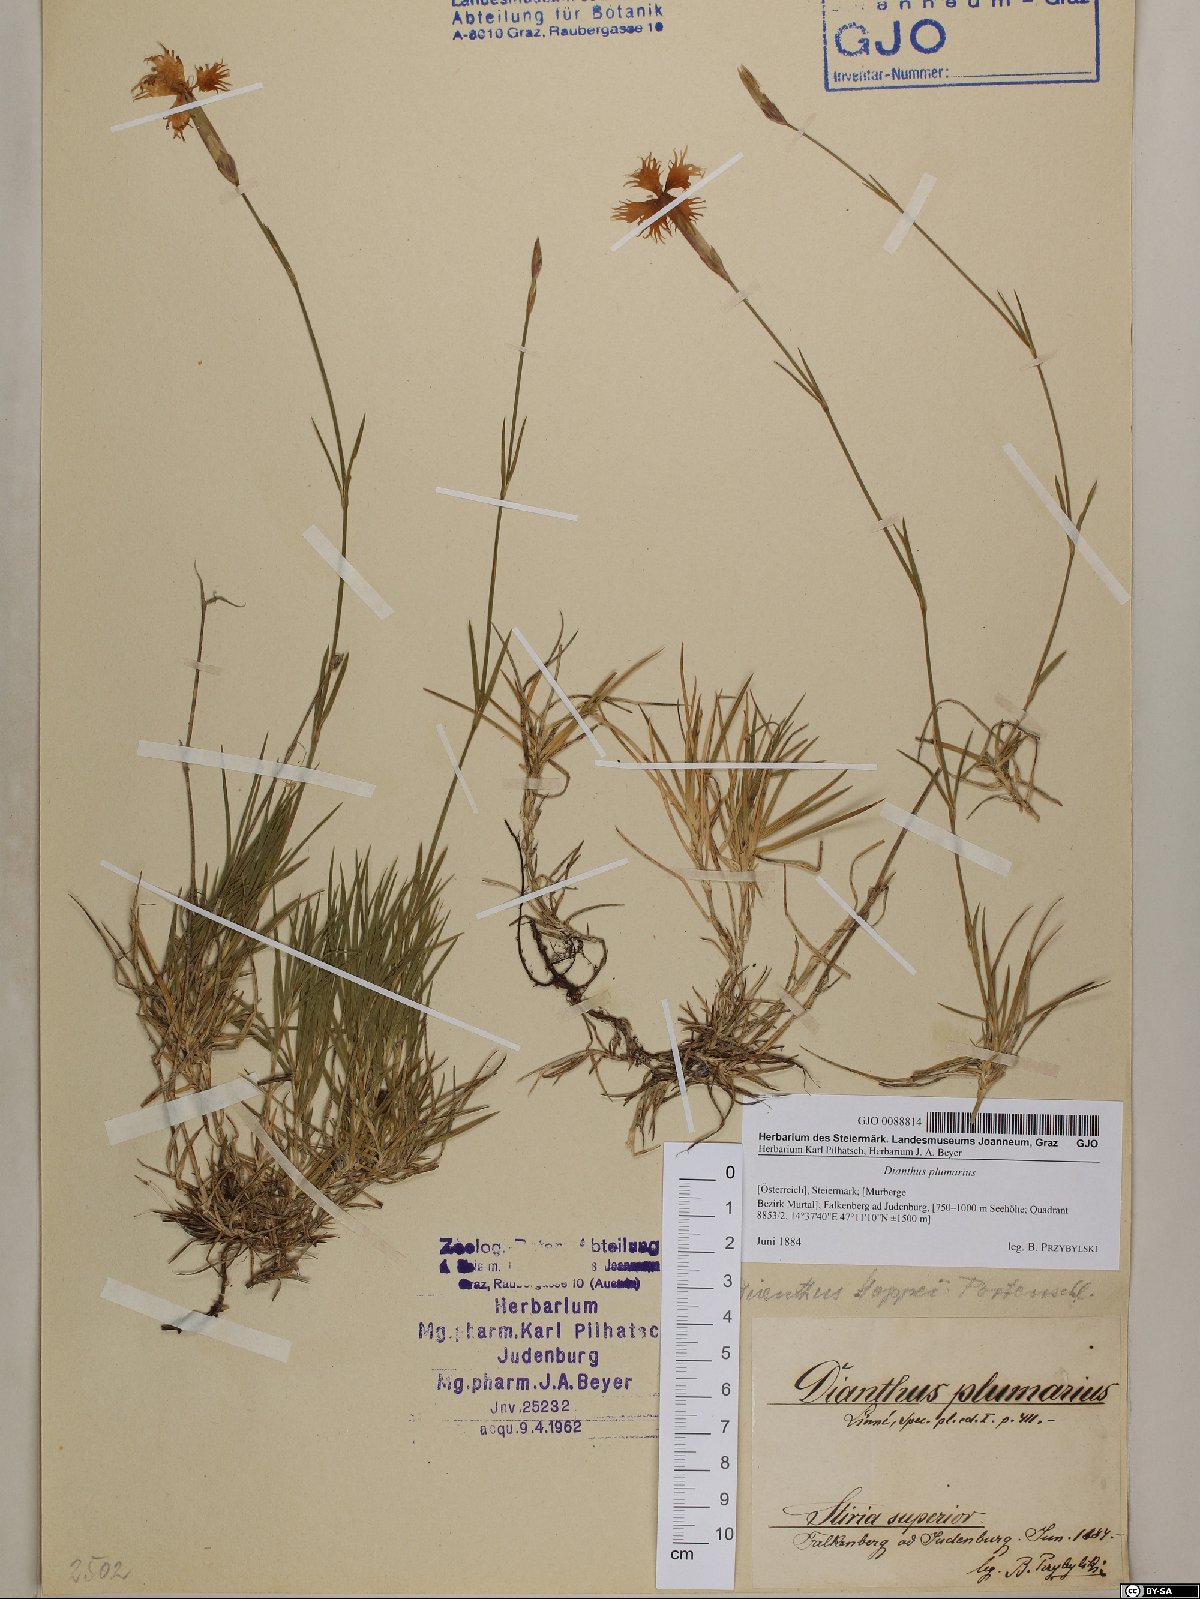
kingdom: Plantae
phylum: Tracheophyta
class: Magnoliopsida
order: Caryophyllales
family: Caryophyllaceae
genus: Dianthus
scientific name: Dianthus plumarius
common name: Pink
